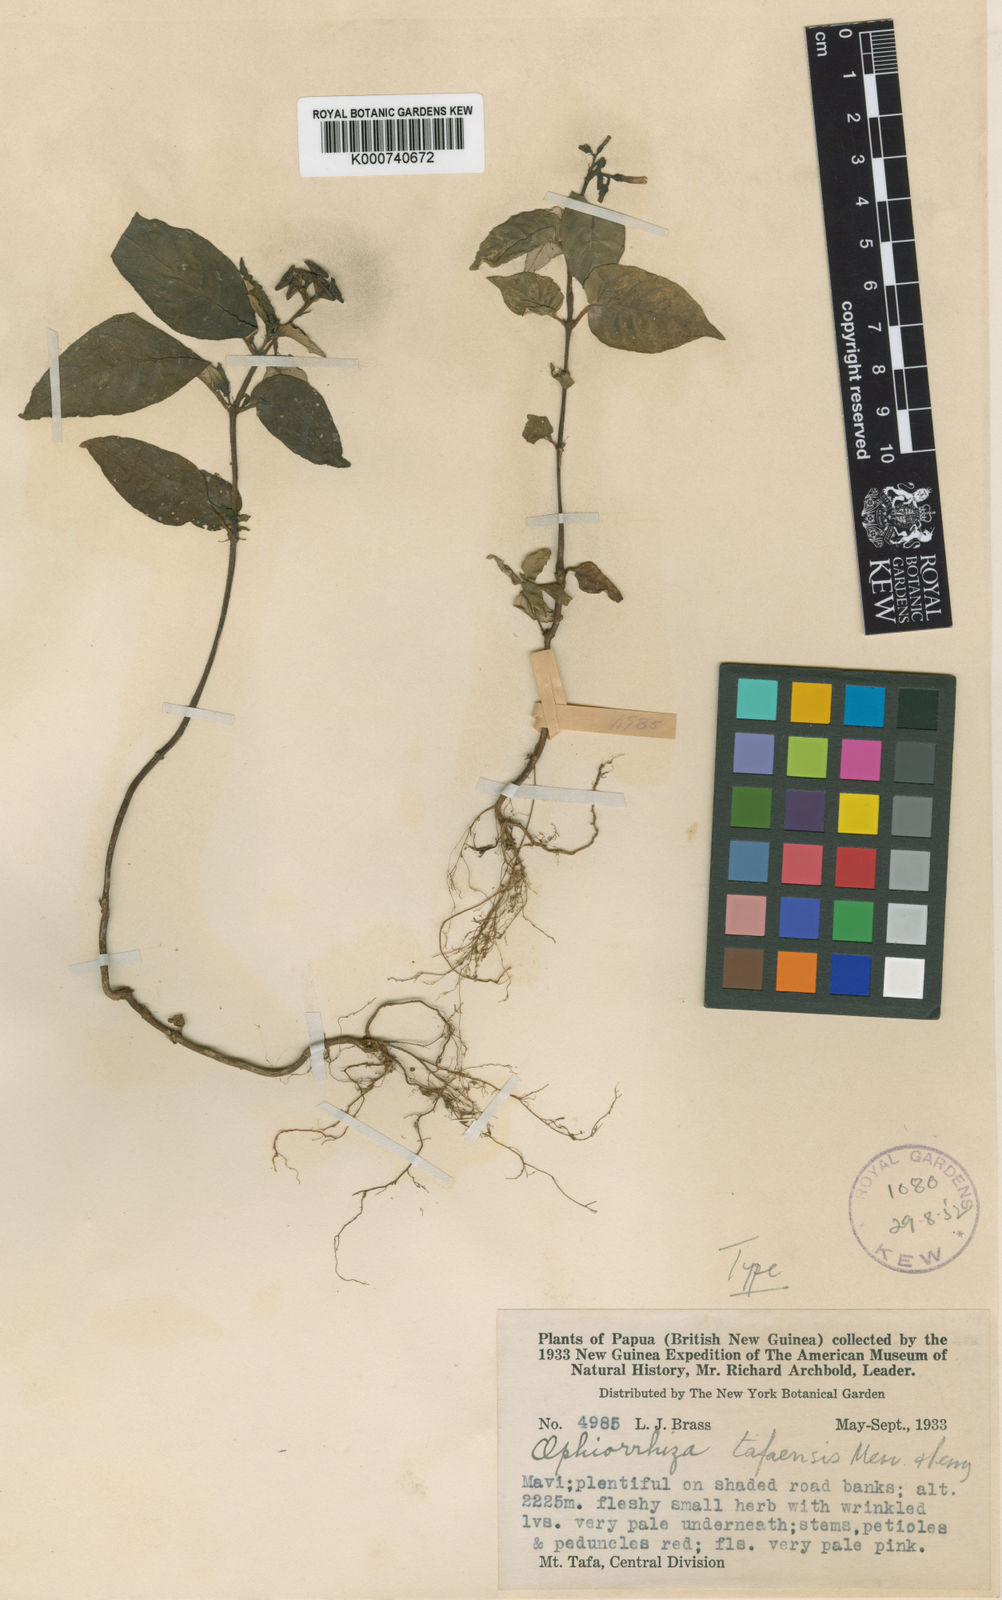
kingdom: Plantae
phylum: Tracheophyta
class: Magnoliopsida
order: Gentianales
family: Rubiaceae
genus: Ophiorrhiza
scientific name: Ophiorrhiza tafaensis
